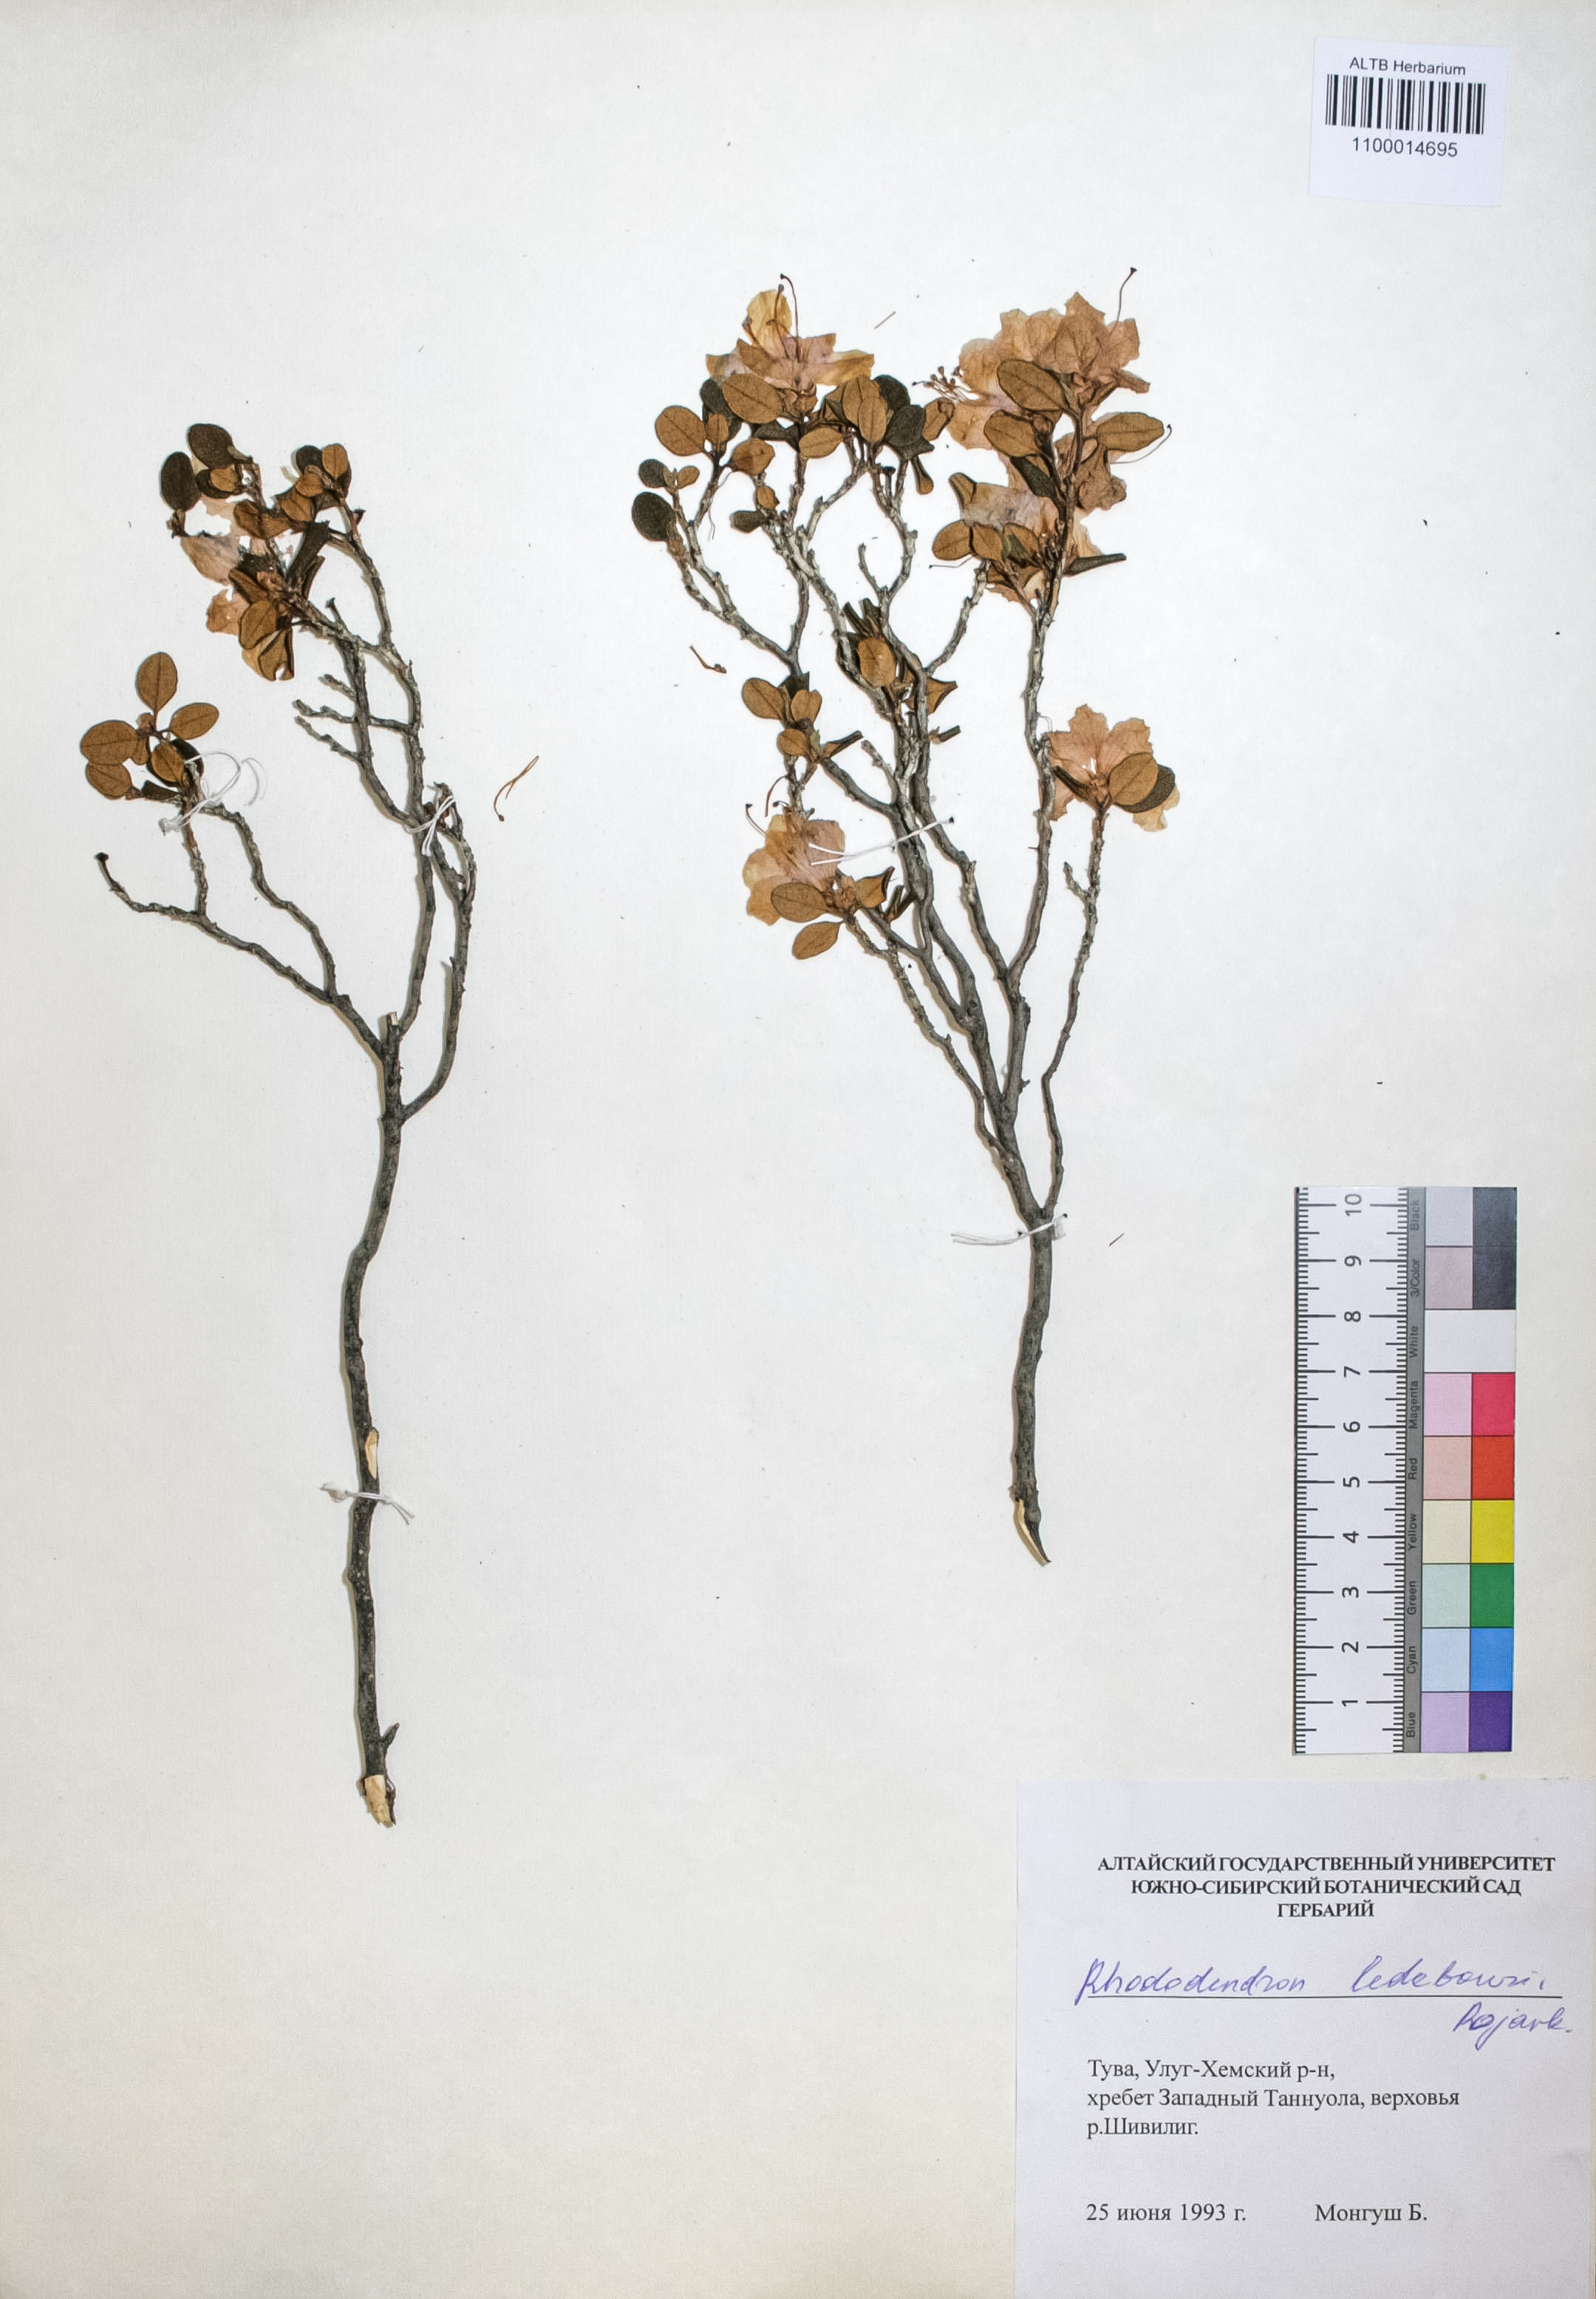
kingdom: Plantae
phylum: Tracheophyta
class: Magnoliopsida
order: Ericales
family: Ericaceae
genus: Rhododendron
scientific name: Rhododendron dauricum
